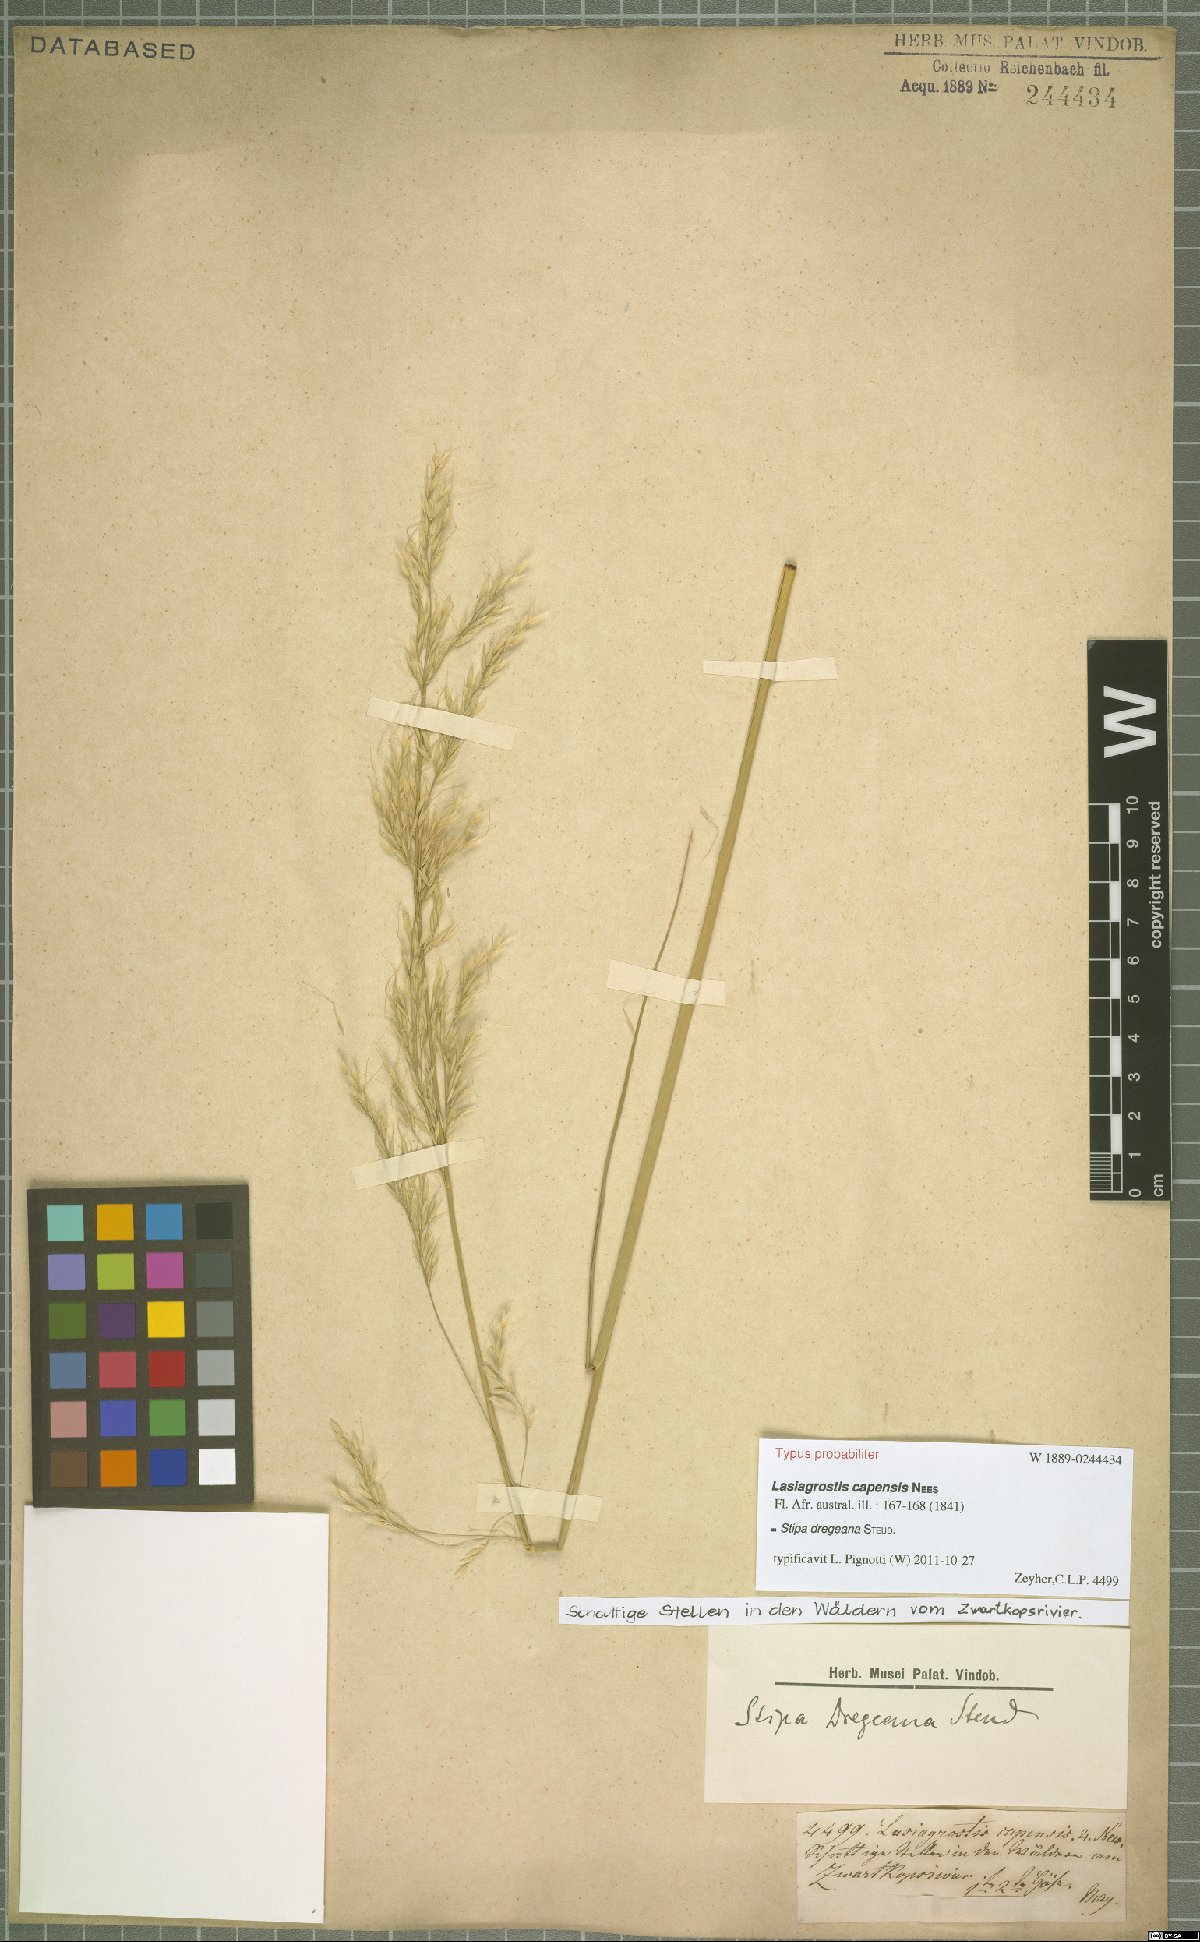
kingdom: Plantae
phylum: Tracheophyta
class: Liliopsida
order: Poales
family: Poaceae
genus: Stipa
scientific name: Stipa dregeana
